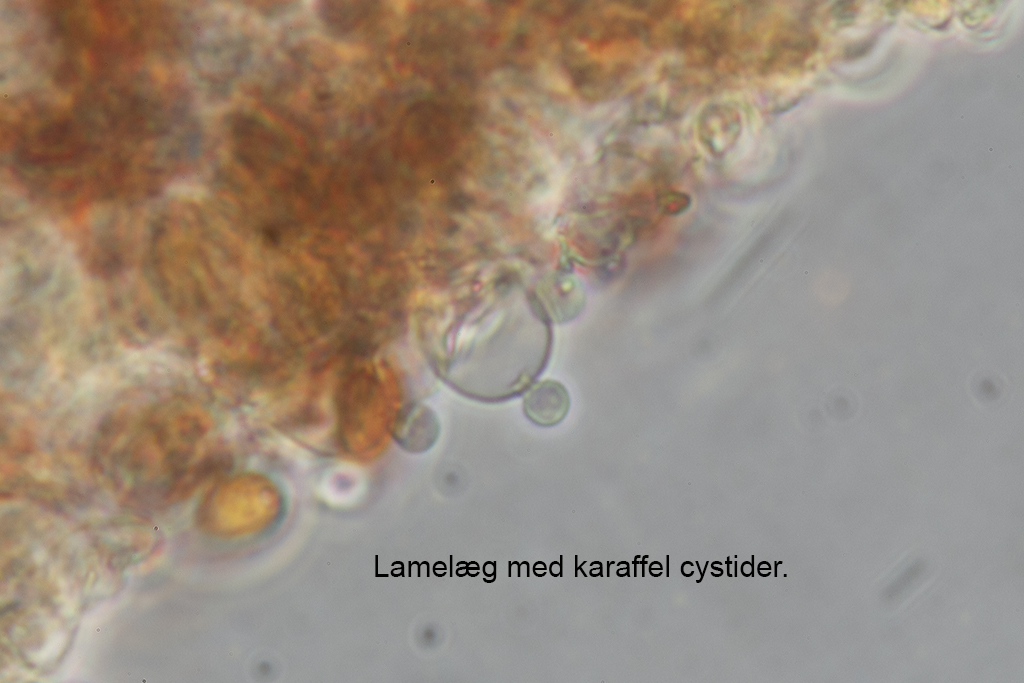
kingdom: Fungi
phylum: Basidiomycota
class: Agaricomycetes
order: Agaricales
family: Bolbitiaceae
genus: Conocybe
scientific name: Conocybe brunneidisca
